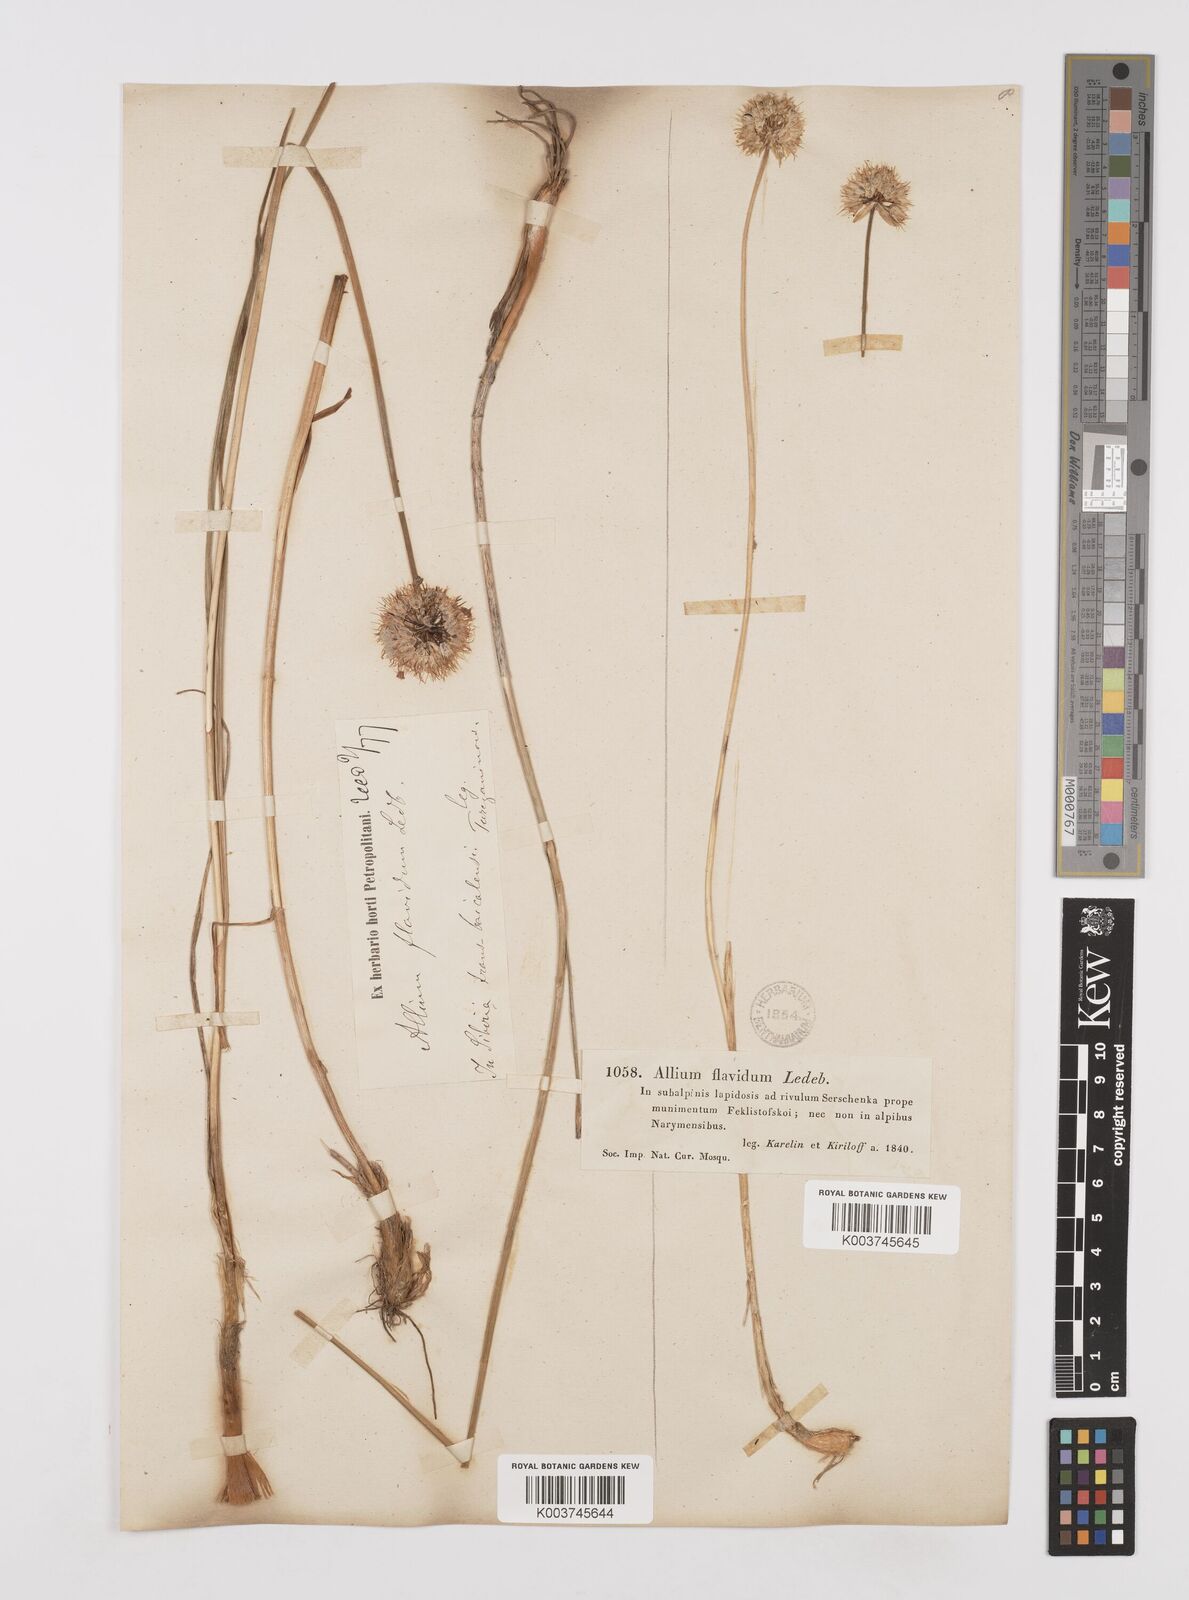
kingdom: Plantae
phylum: Tracheophyta
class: Liliopsida
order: Asparagales
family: Amaryllidaceae
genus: Allium
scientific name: Allium textile
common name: Prairie onion
